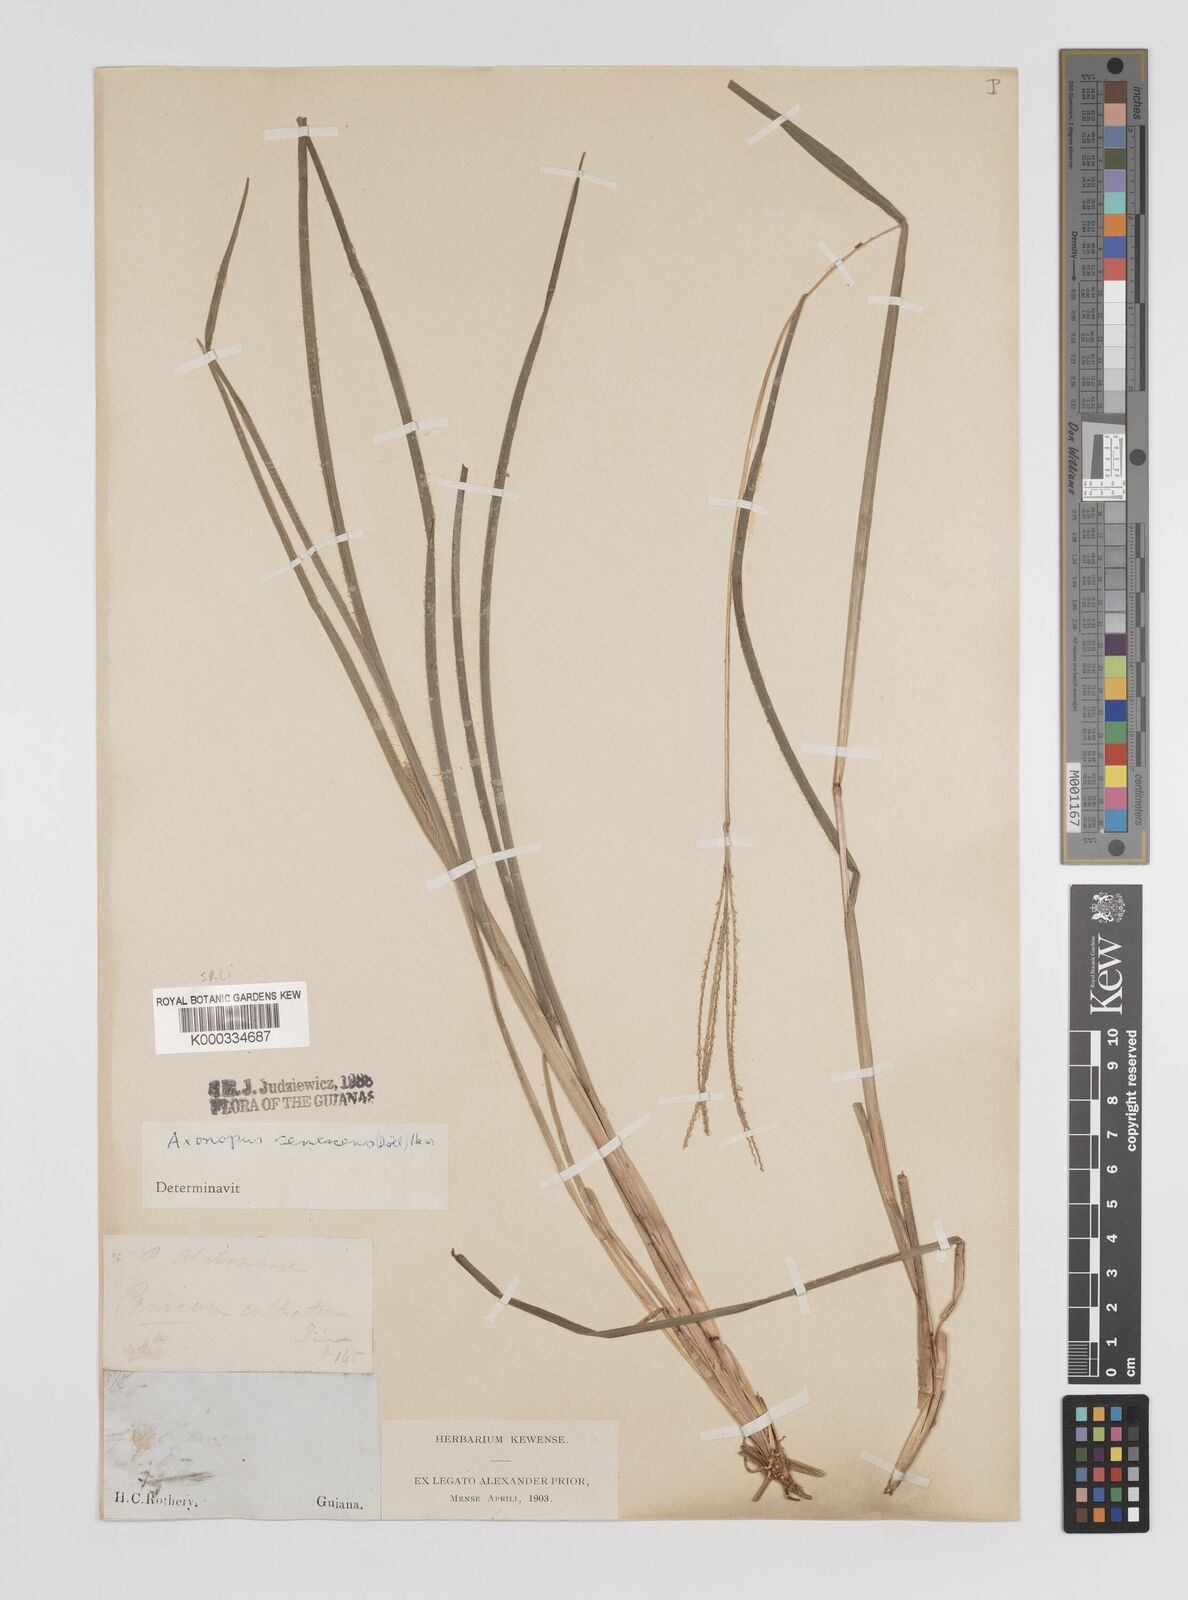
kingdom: Plantae
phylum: Tracheophyta
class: Liliopsida
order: Poales
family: Poaceae
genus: Axonopus
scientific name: Axonopus
